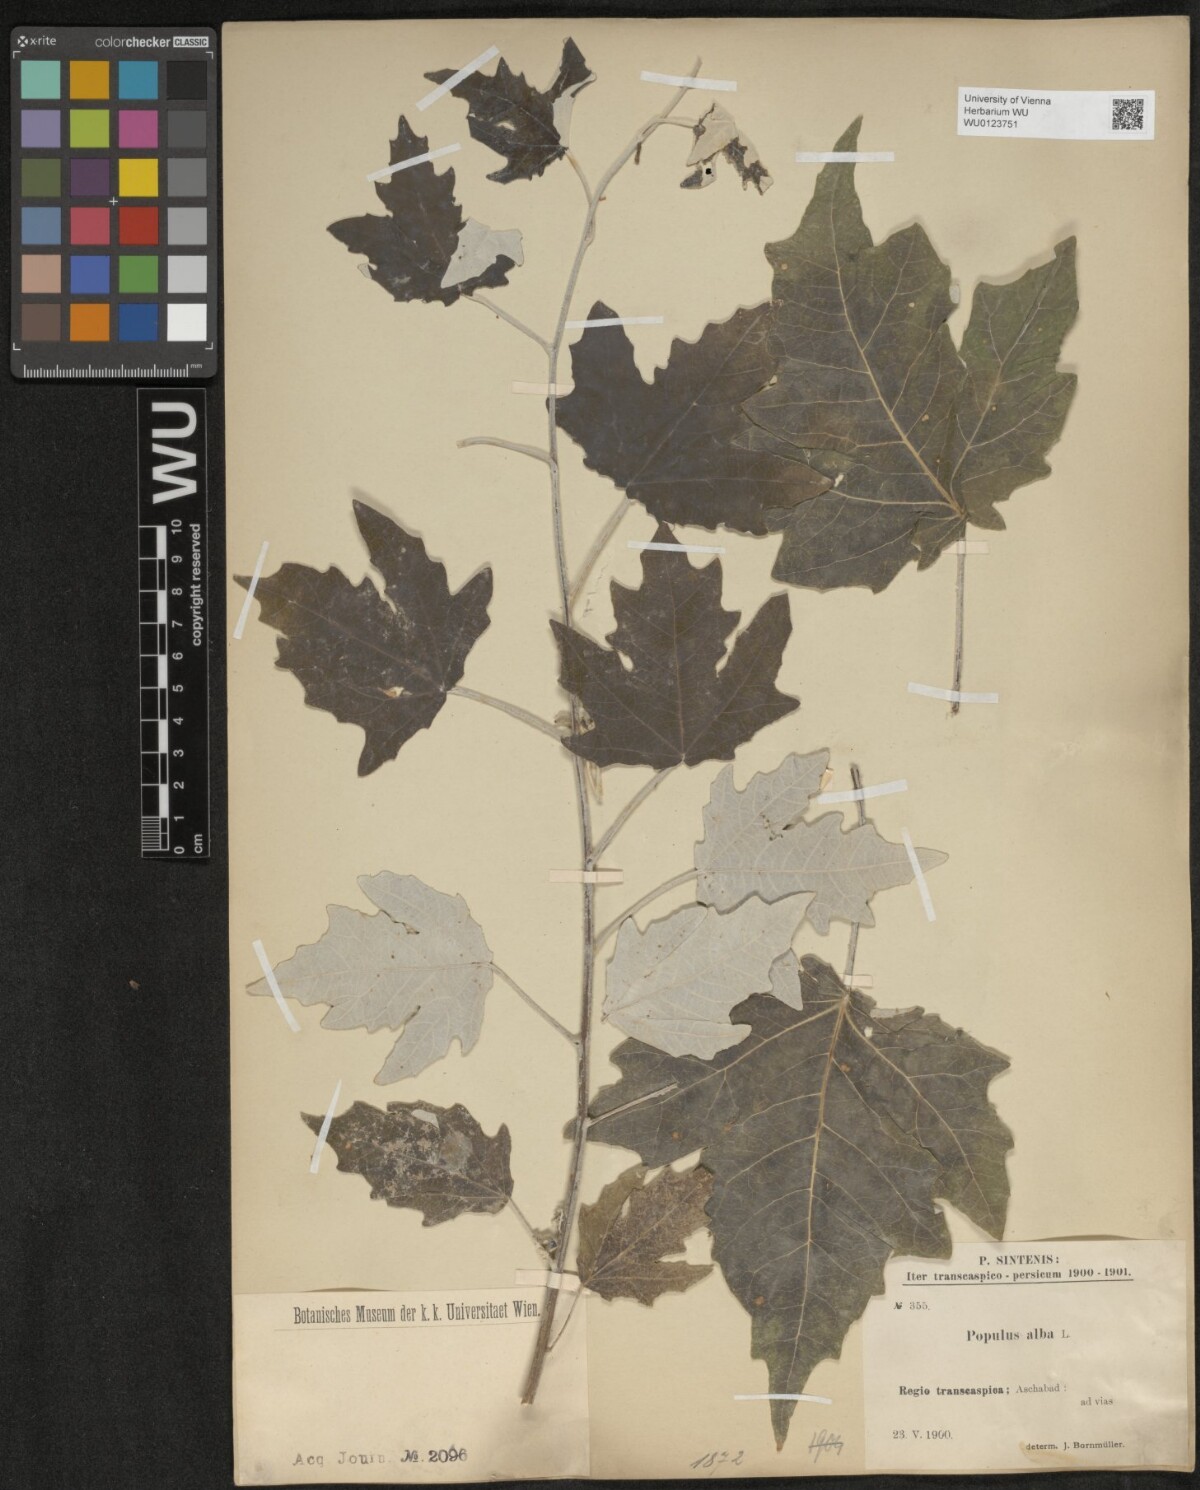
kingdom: Plantae
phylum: Tracheophyta
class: Magnoliopsida
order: Malpighiales
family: Salicaceae
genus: Populus
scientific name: Populus alba
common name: White poplar
